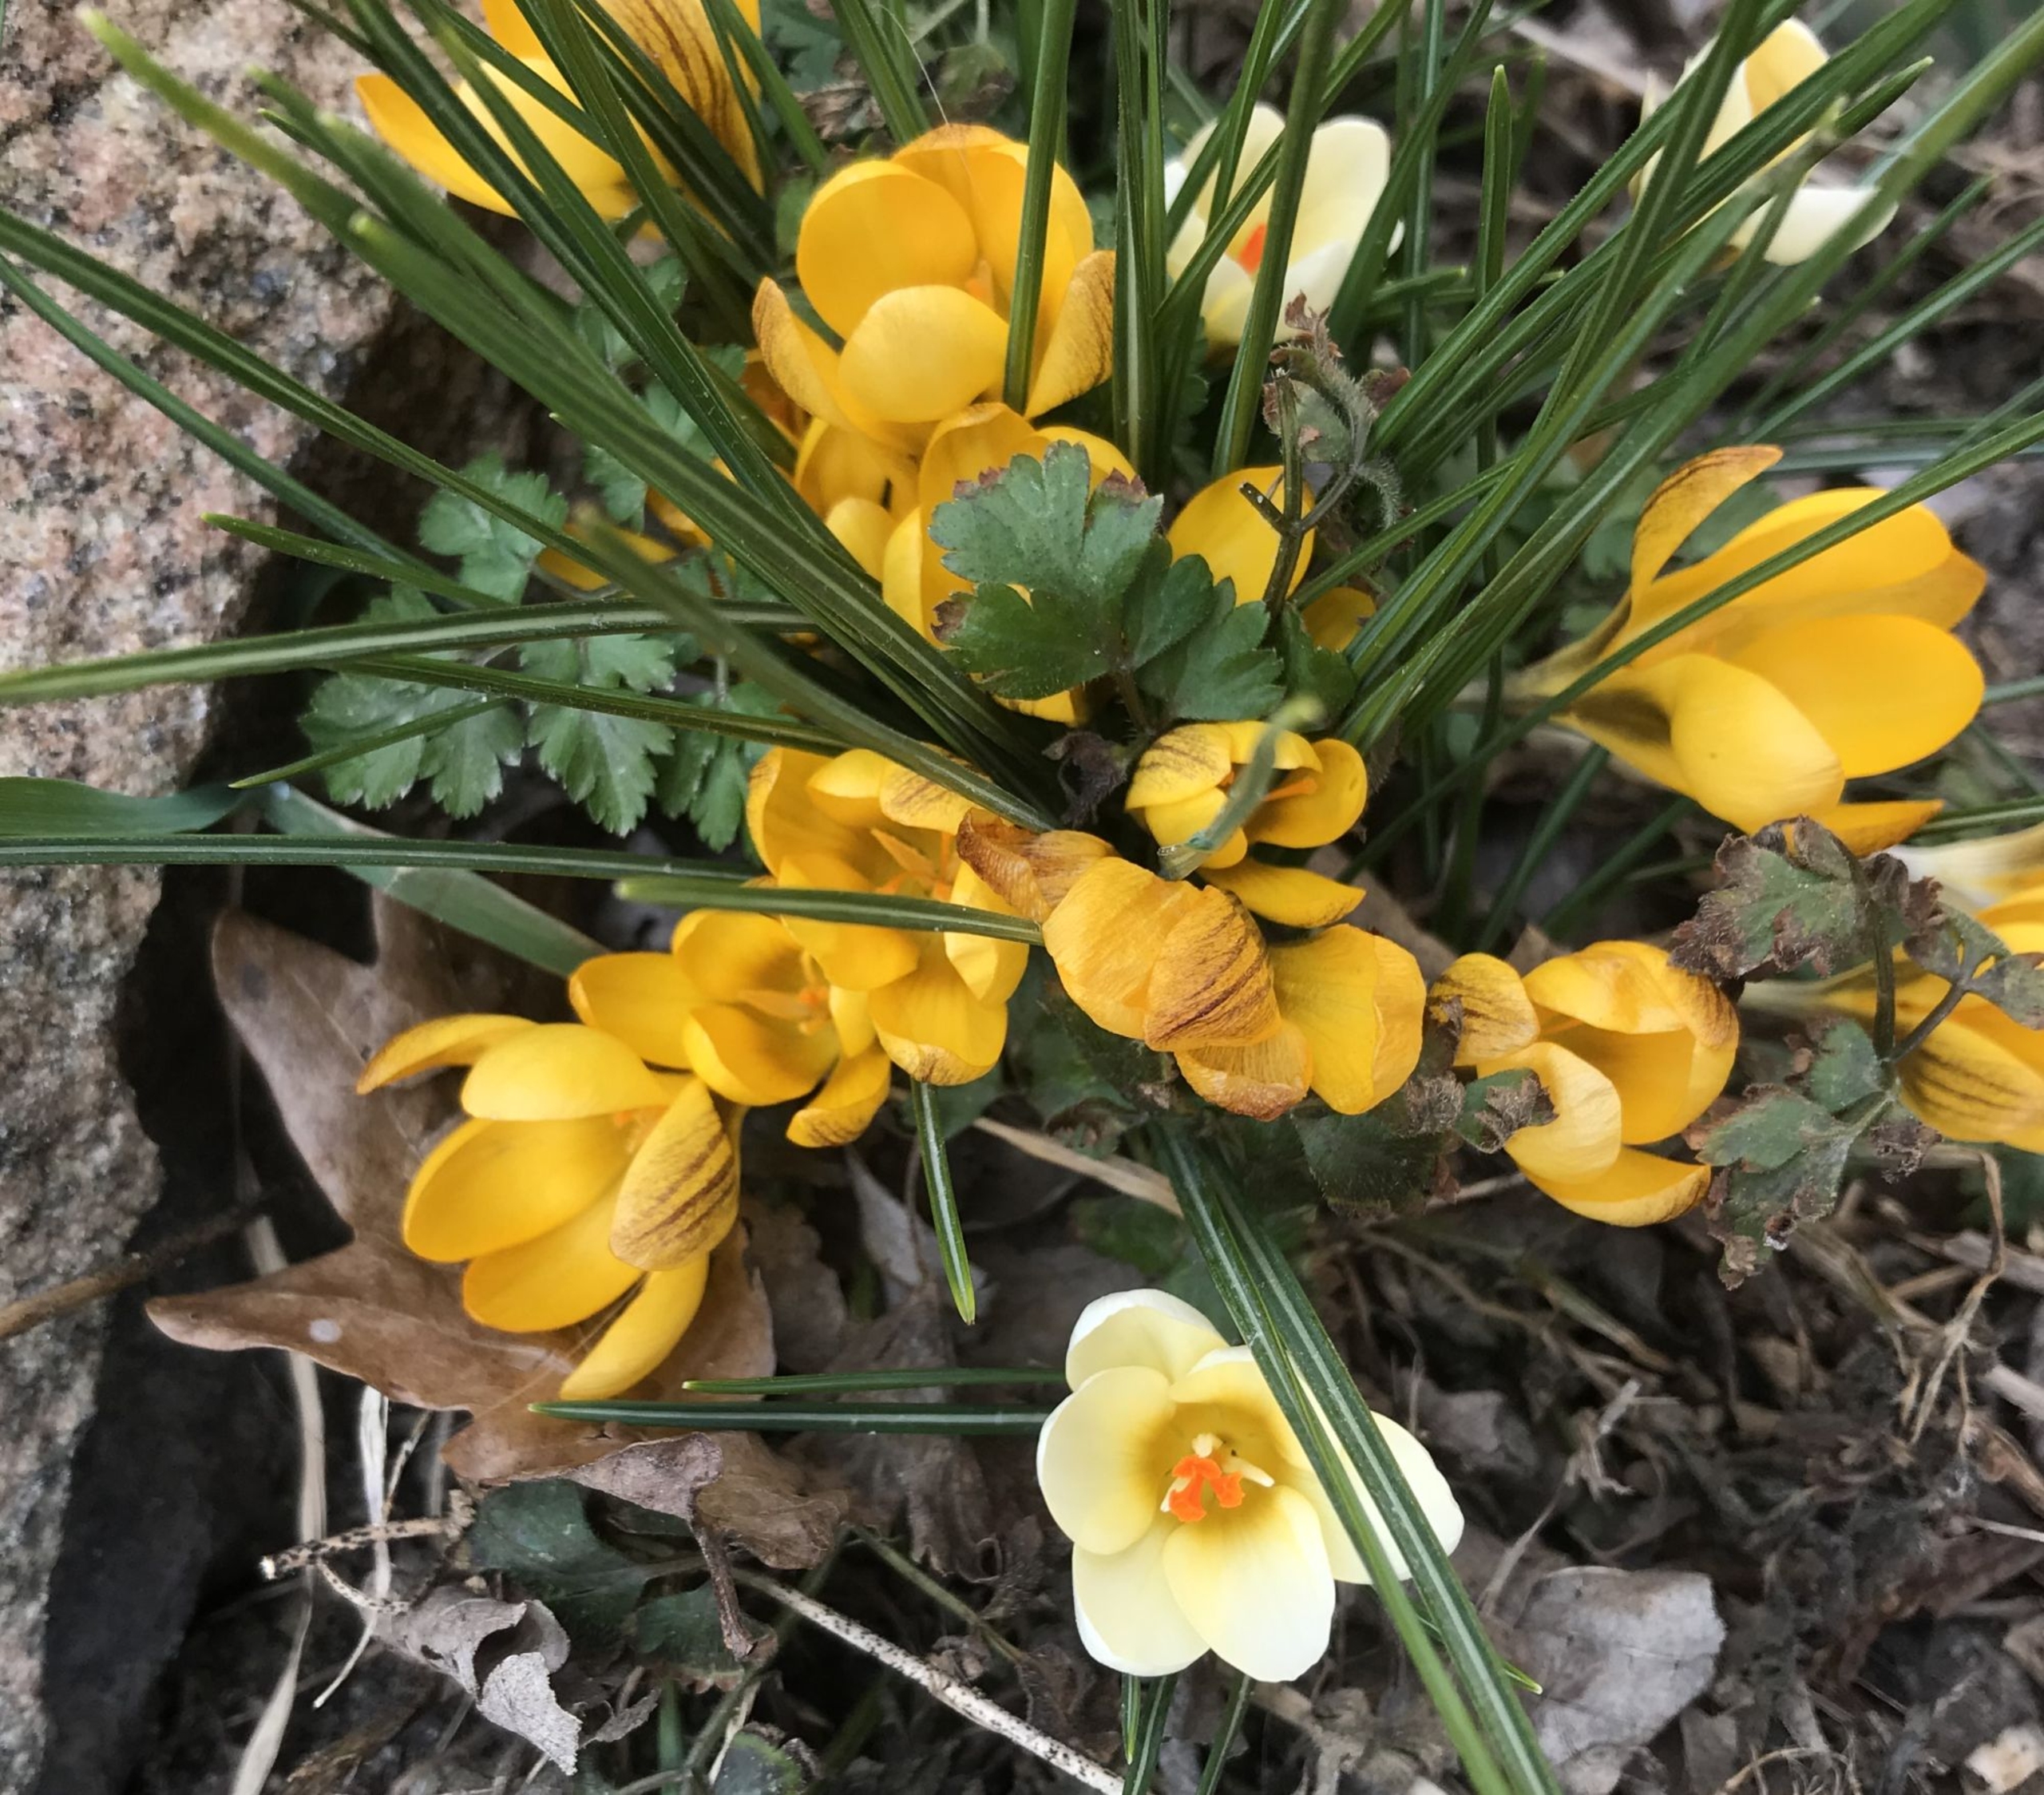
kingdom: Plantae
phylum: Tracheophyta
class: Liliopsida
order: Asparagales
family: Iridaceae
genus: Crocus
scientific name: Crocus chrysanthus
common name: Skede-krokus
